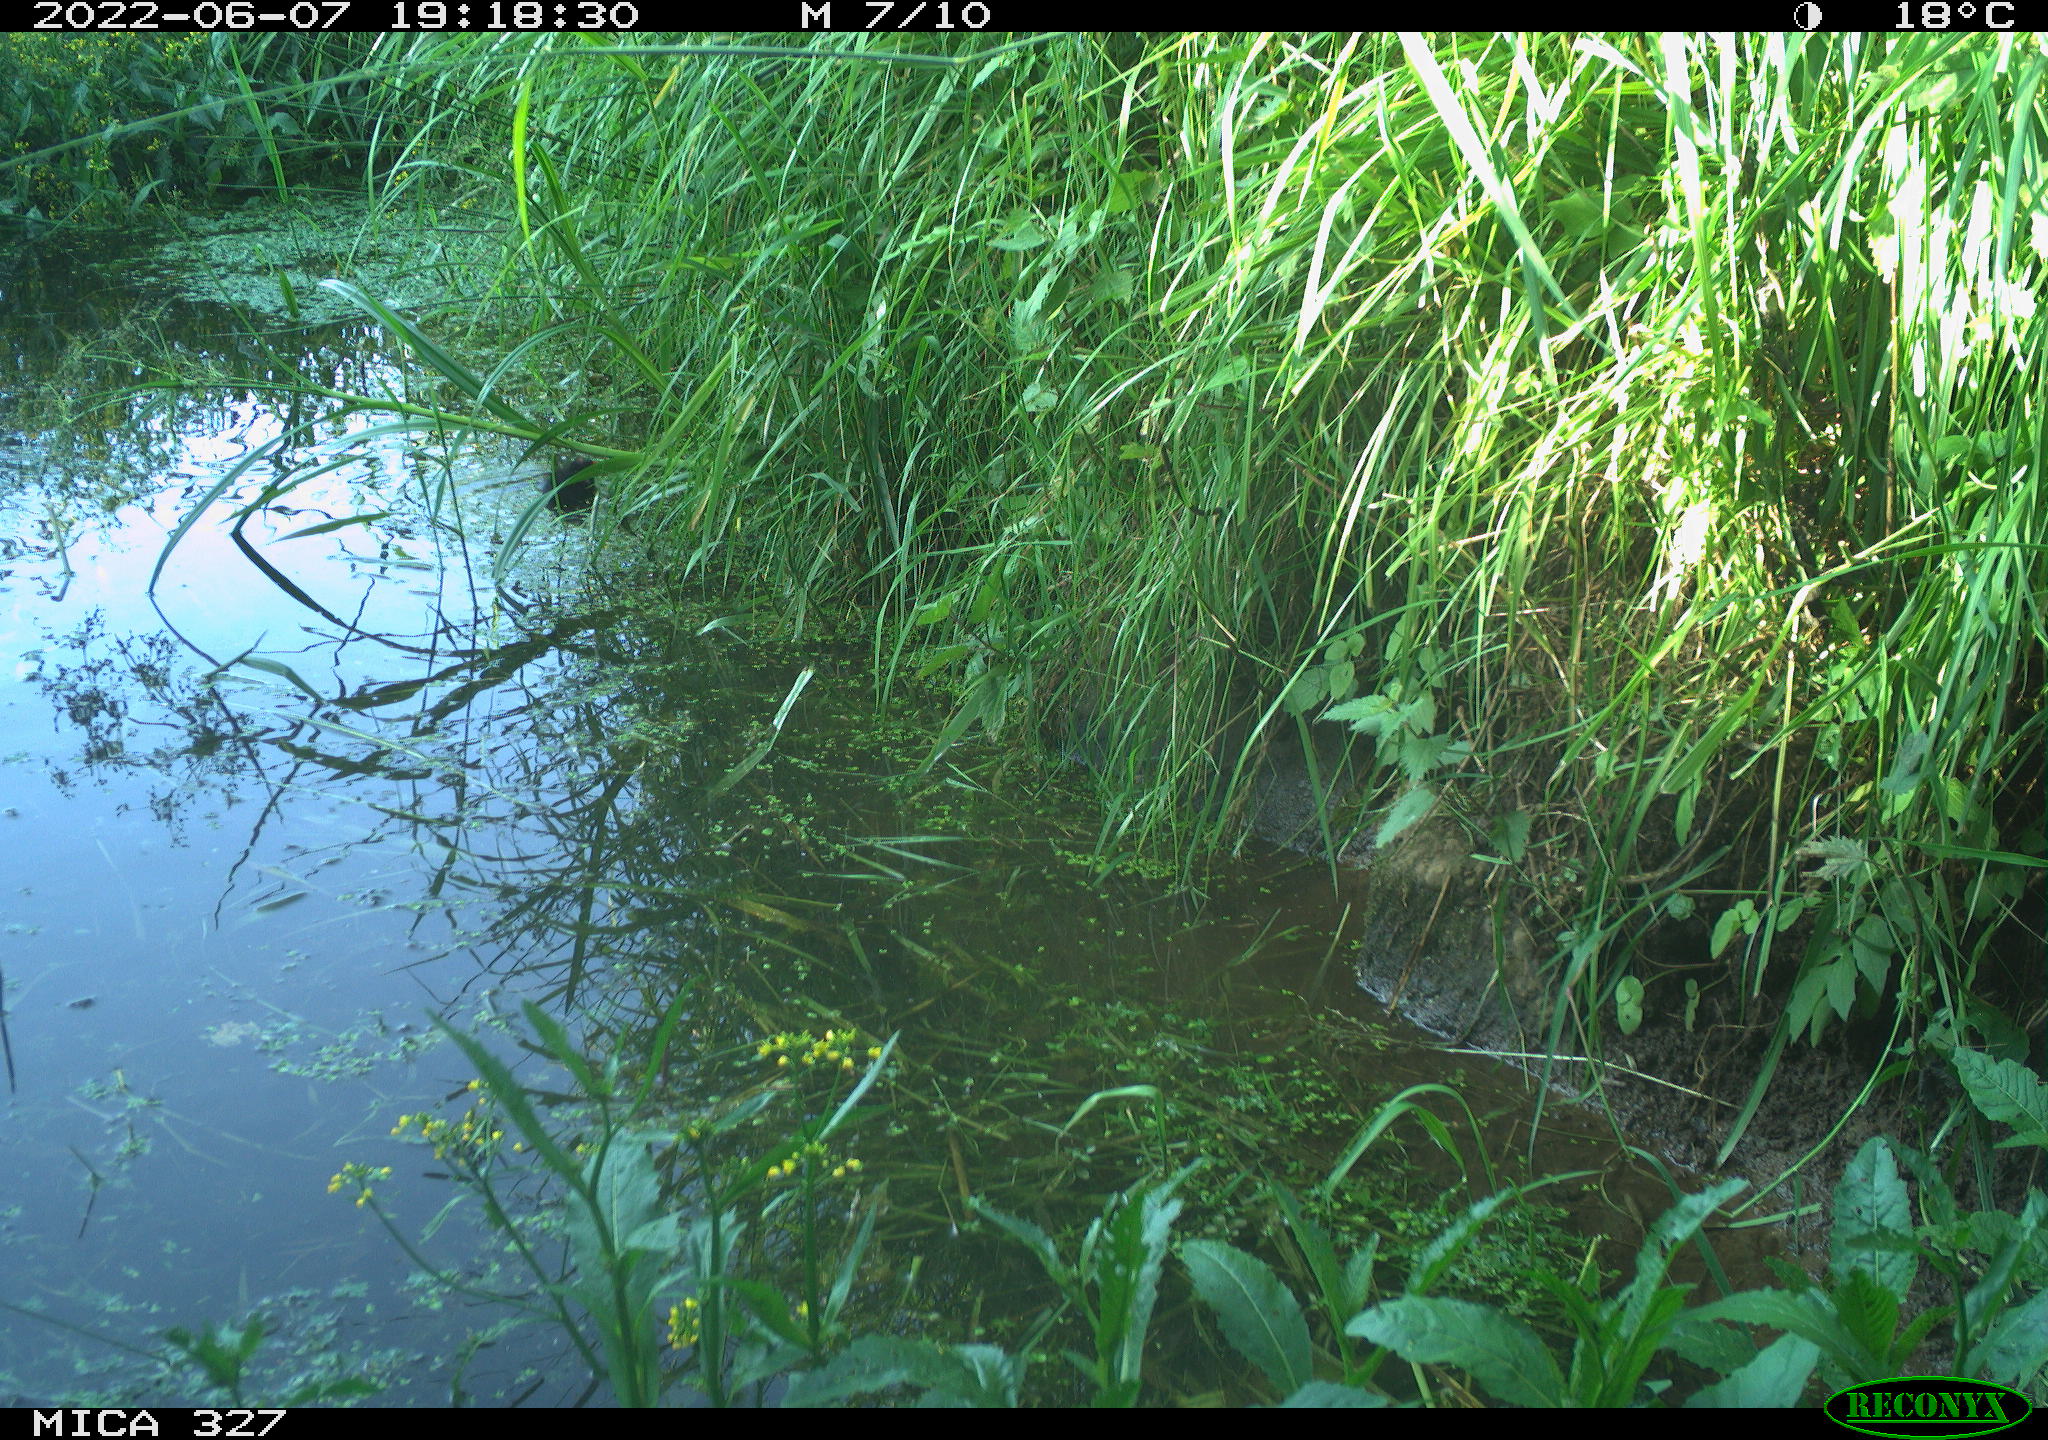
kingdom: Animalia
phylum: Chordata
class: Aves
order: Gruiformes
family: Rallidae
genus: Gallinula
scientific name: Gallinula chloropus
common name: Common moorhen
